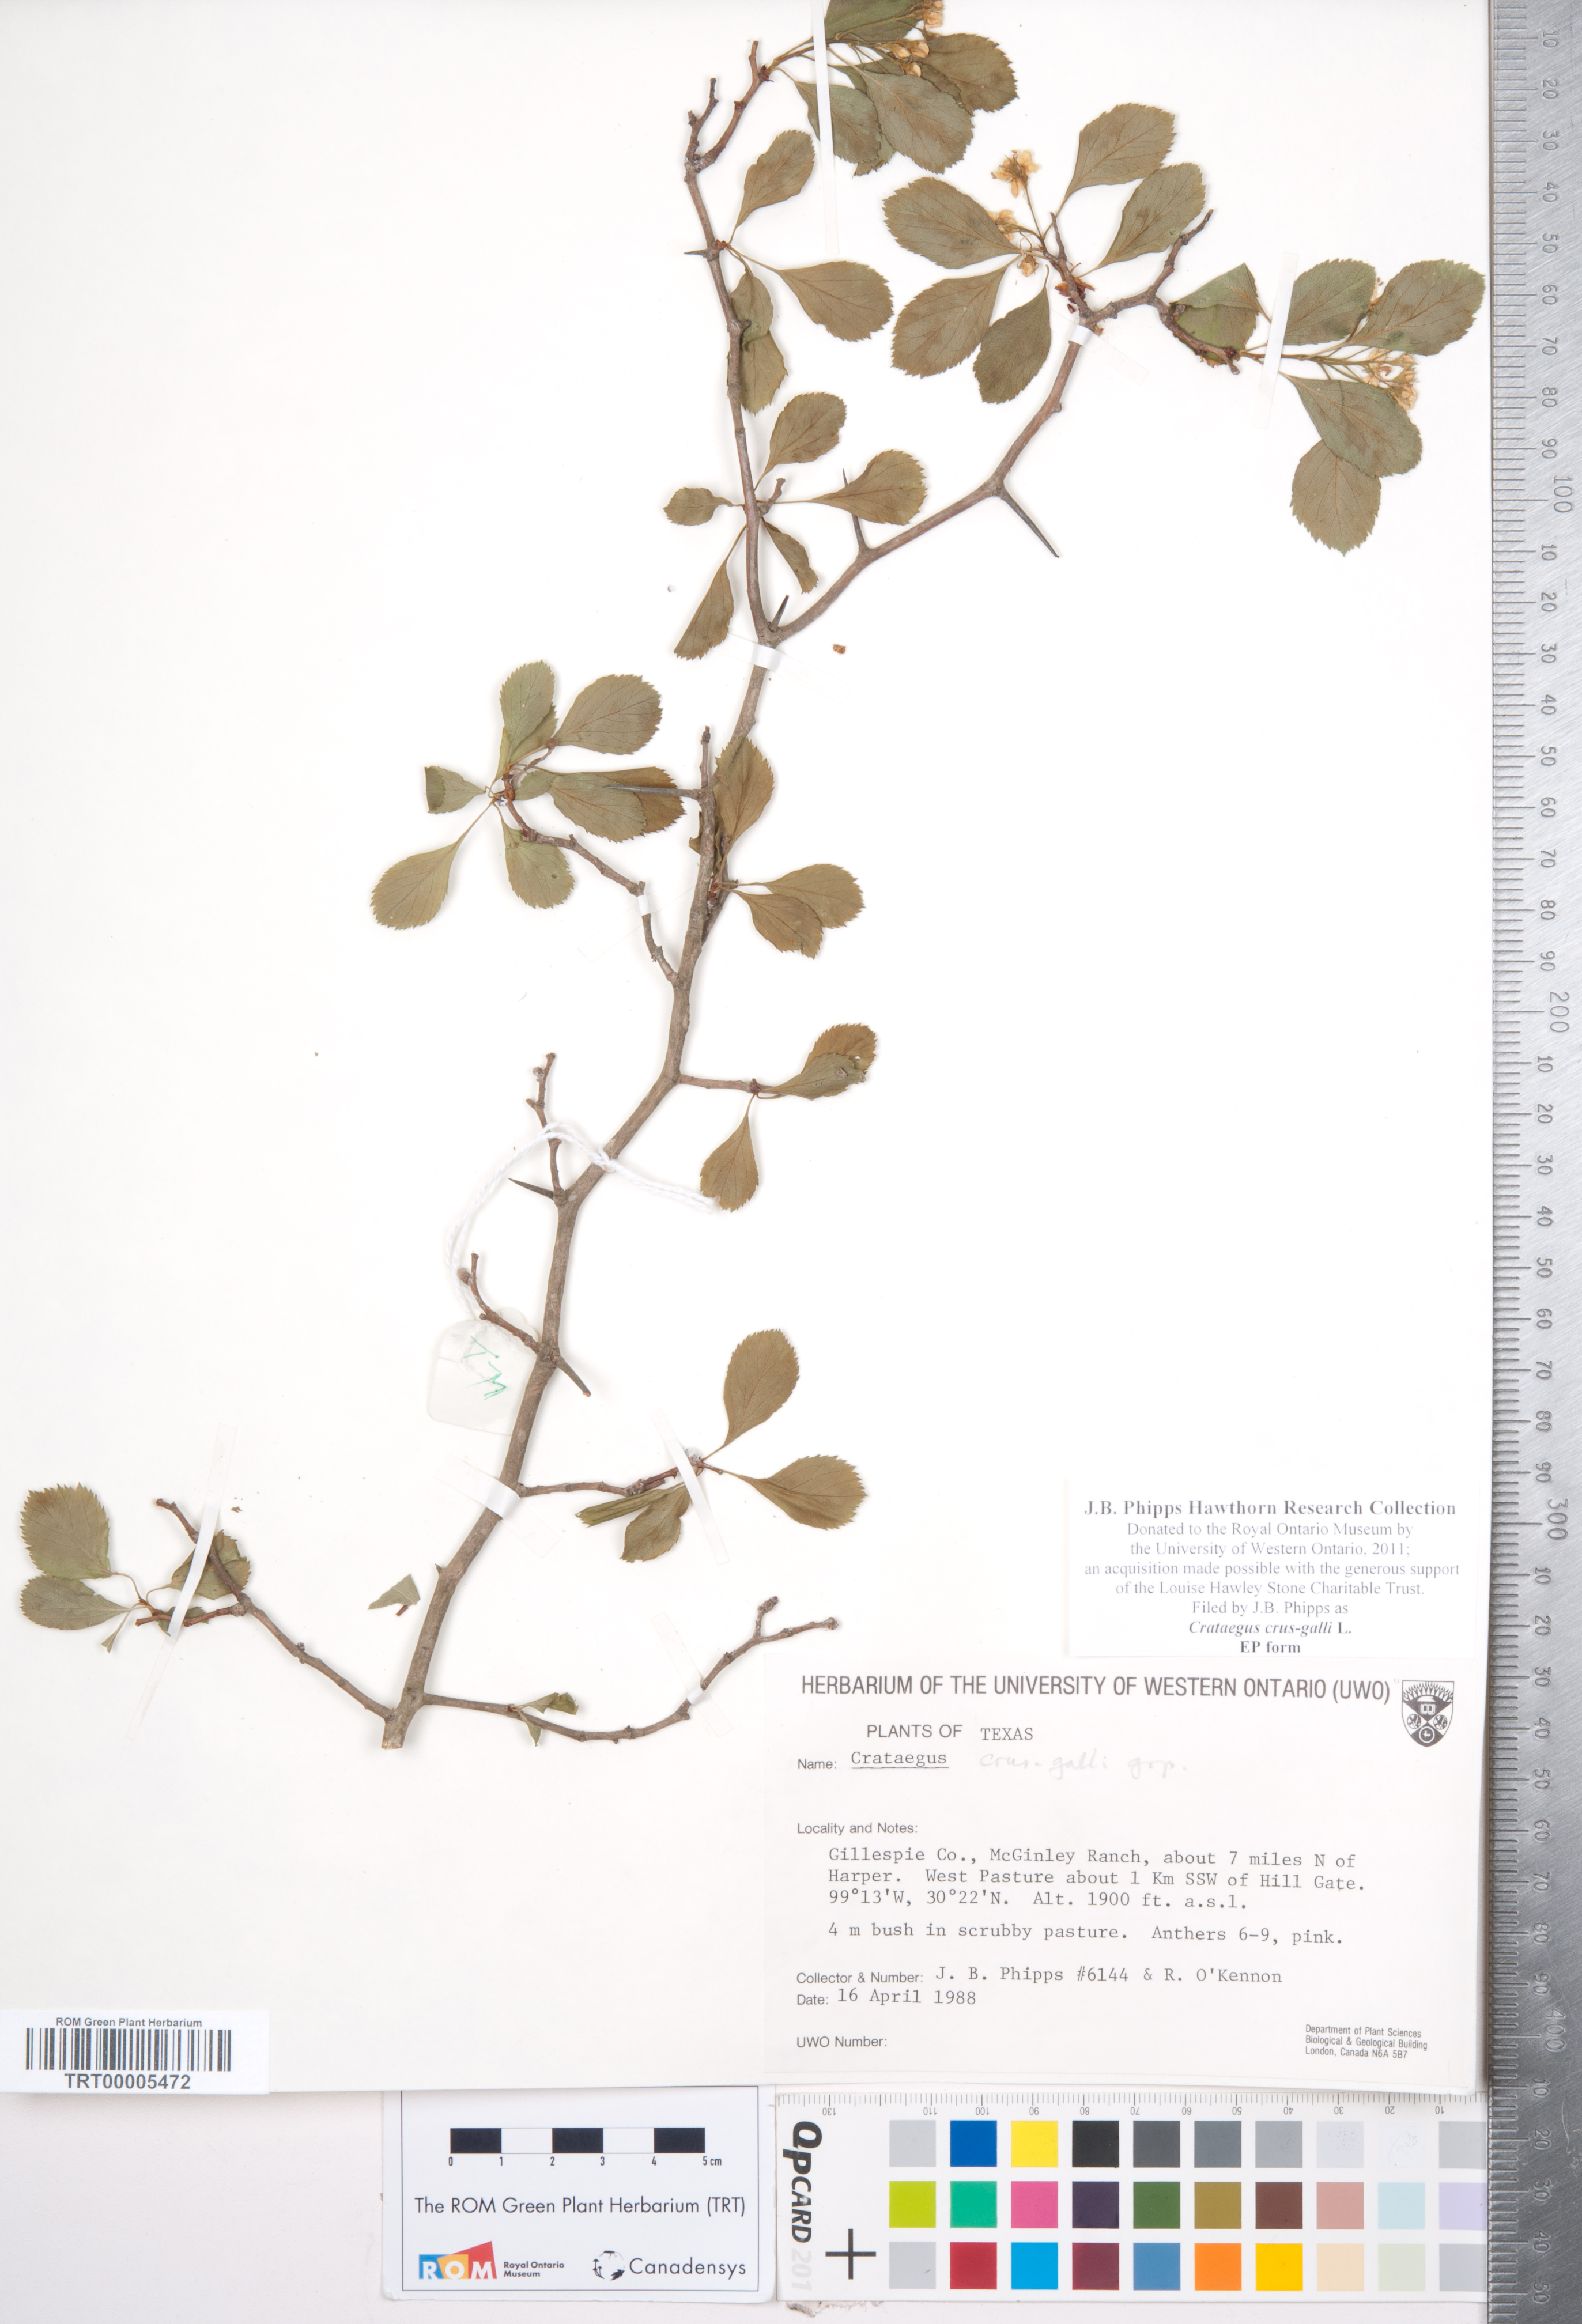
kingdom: Plantae
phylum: Tracheophyta
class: Magnoliopsida
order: Rosales
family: Rosaceae
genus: Crataegus
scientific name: Crataegus crus-galli
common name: Cockspurthorn
